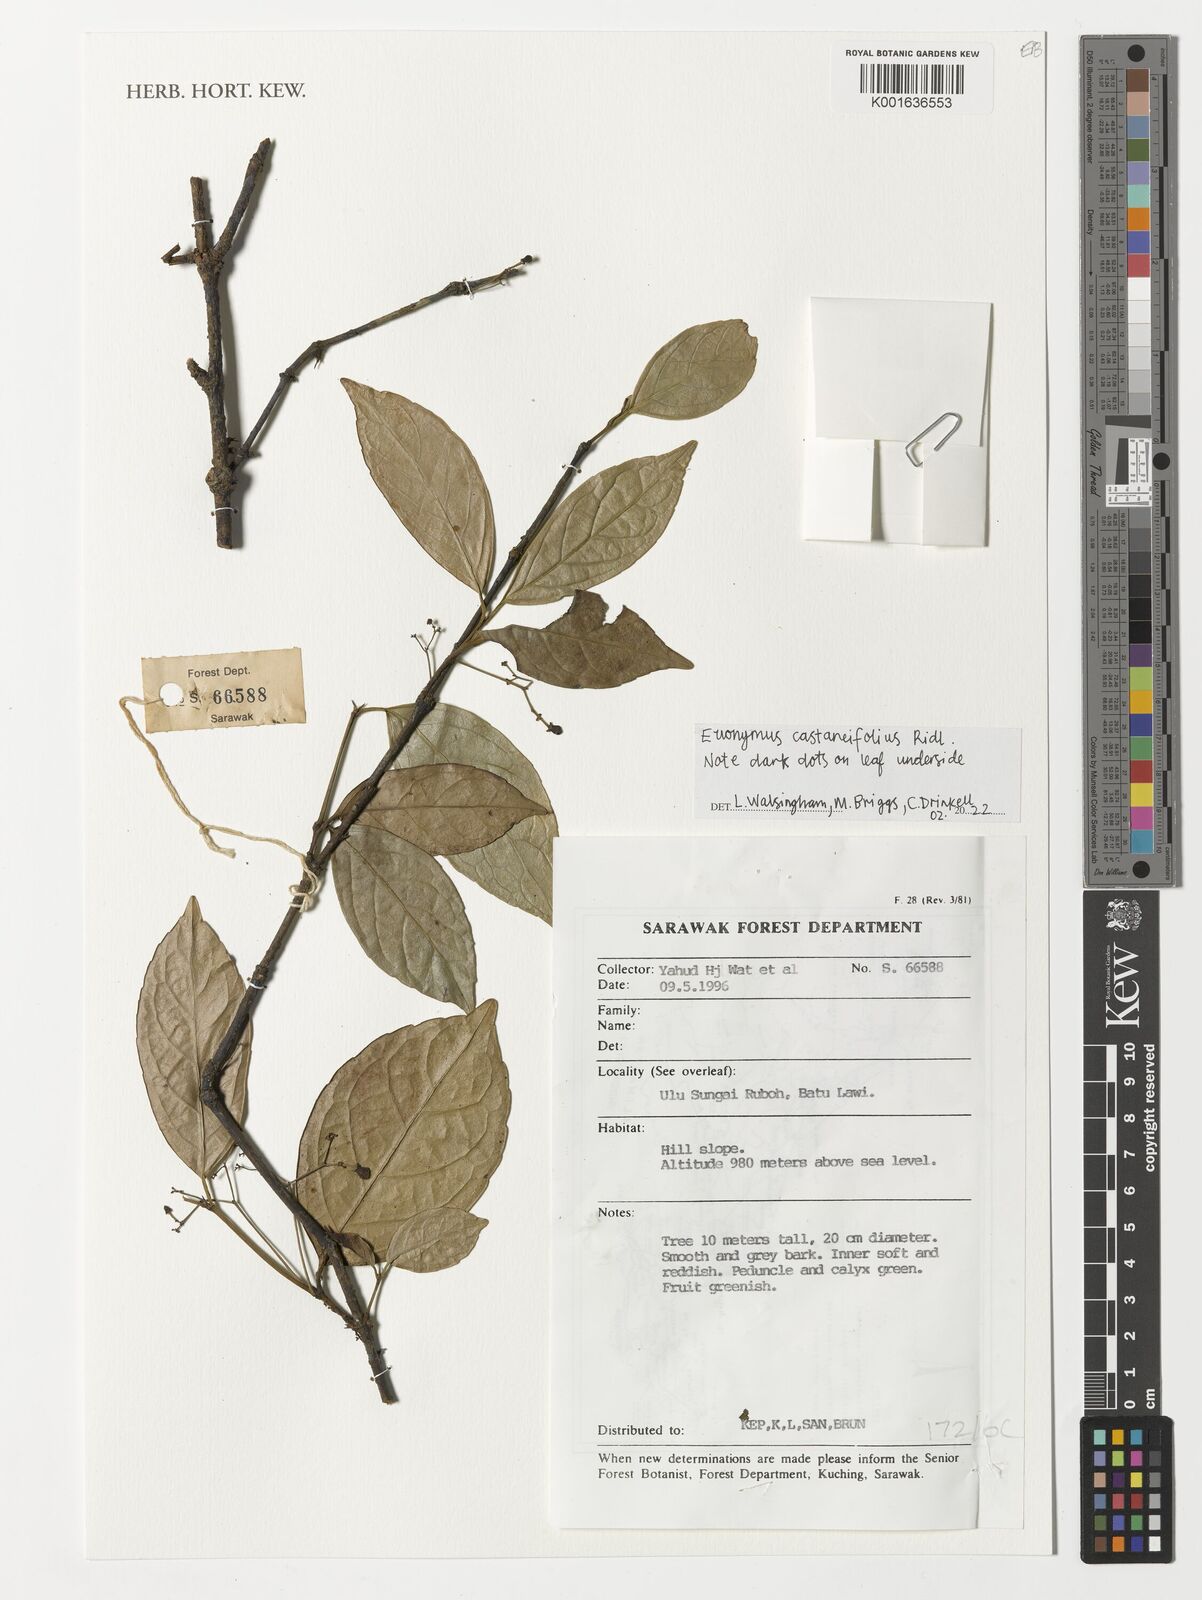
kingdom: Plantae
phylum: Tracheophyta
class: Magnoliopsida
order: Celastrales
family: Celastraceae
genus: Euonymus
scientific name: Euonymus castaneifolius
